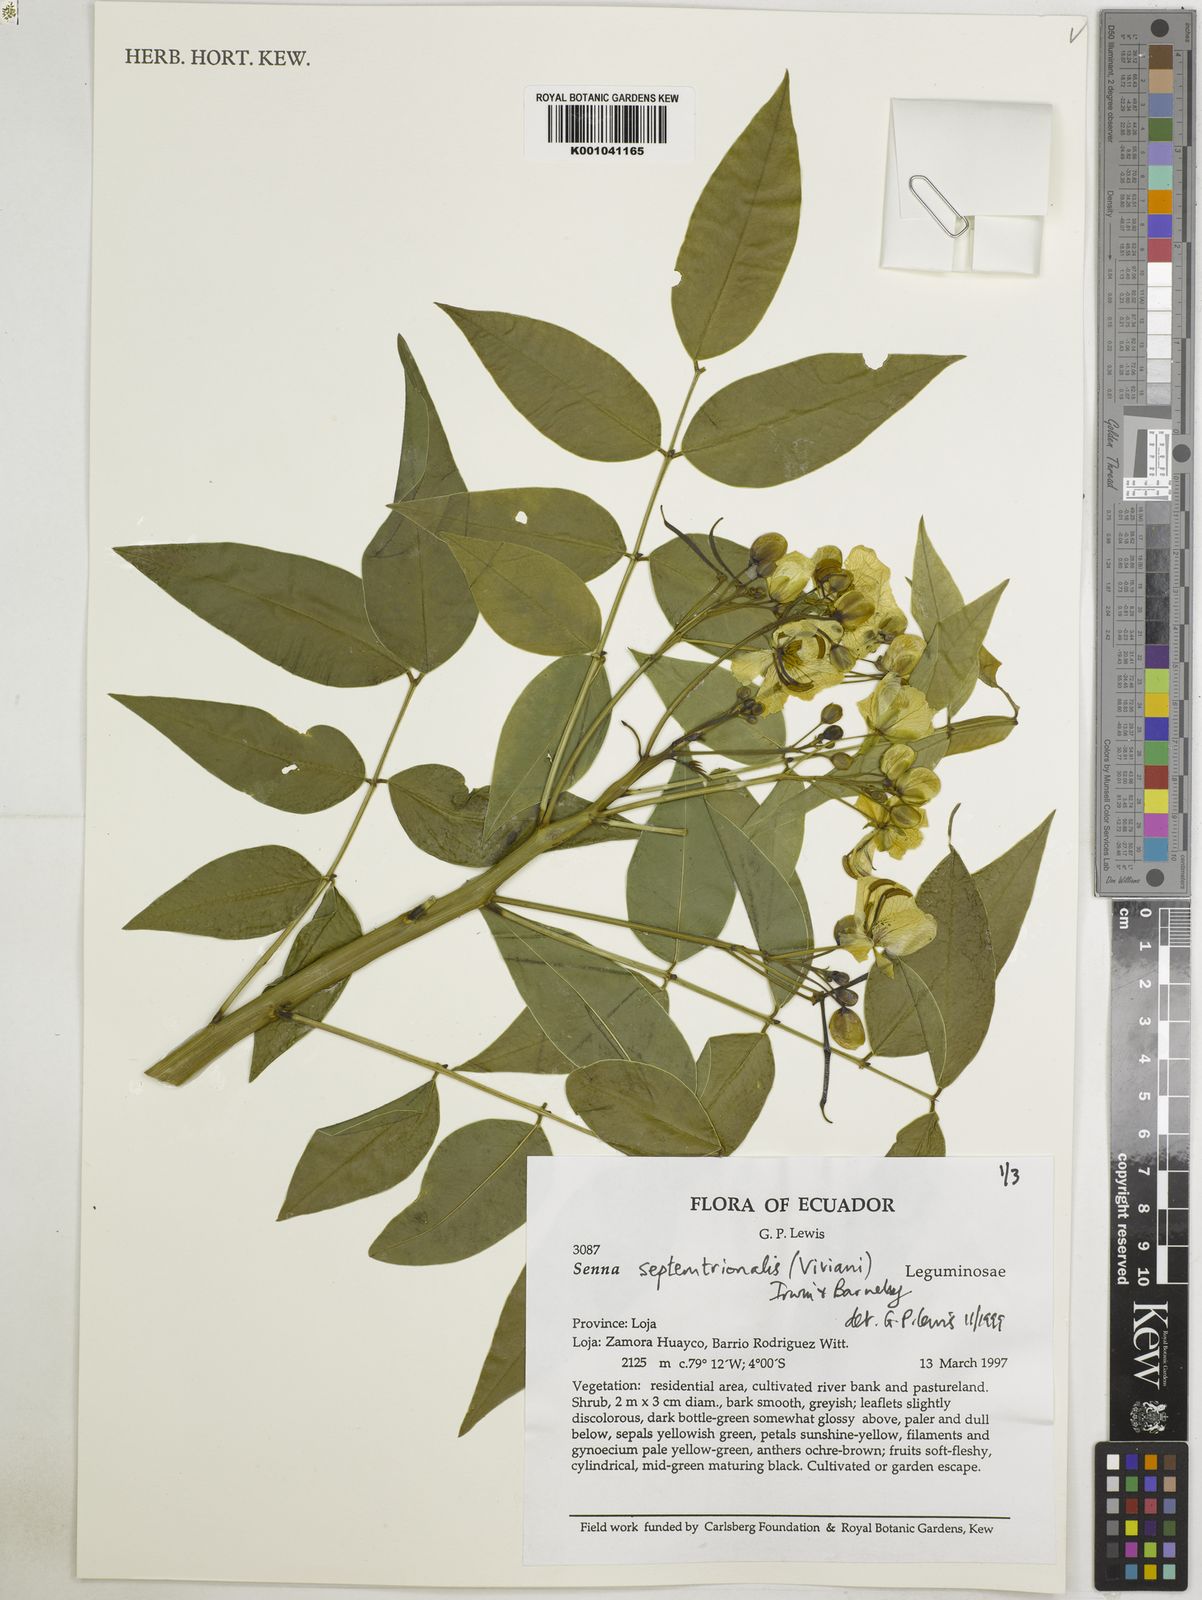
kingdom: Plantae
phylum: Tracheophyta
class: Magnoliopsida
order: Fabales
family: Fabaceae
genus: Senna
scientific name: Senna septemtrionalis
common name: Arsenic bush
